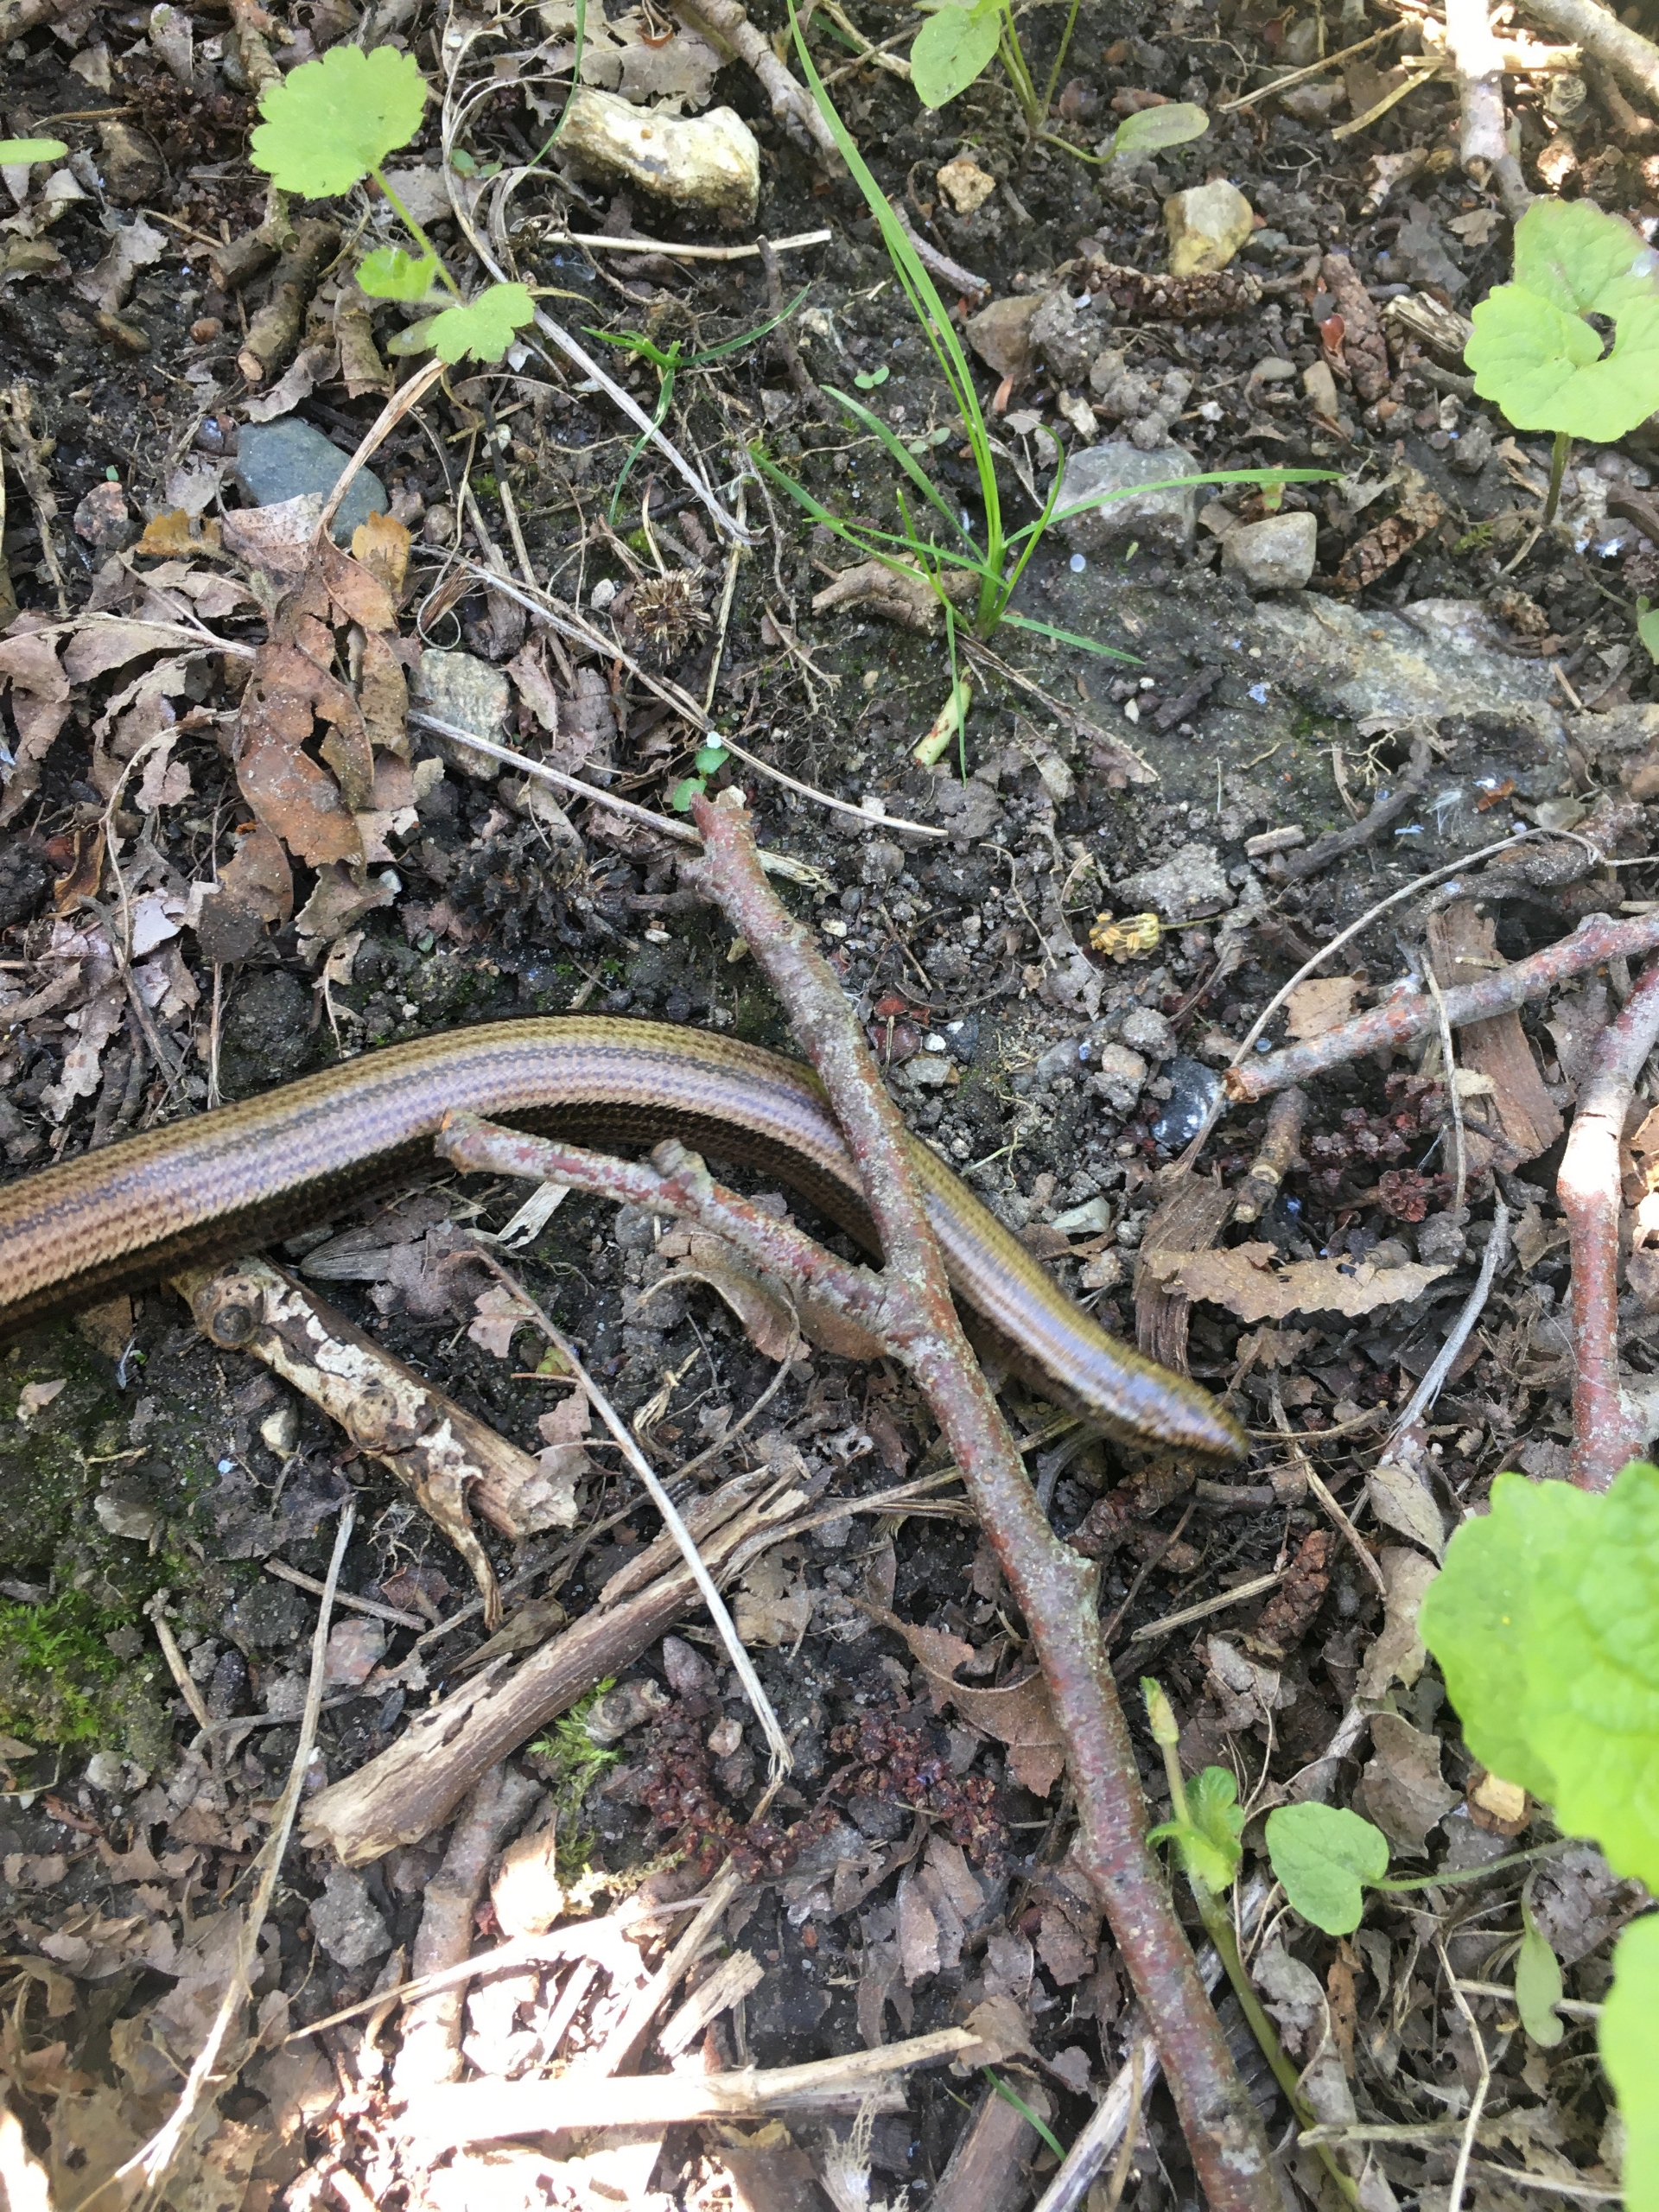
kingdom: Animalia
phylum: Chordata
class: Squamata
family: Anguidae
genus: Anguis
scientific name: Anguis fragilis
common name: Stålorm
